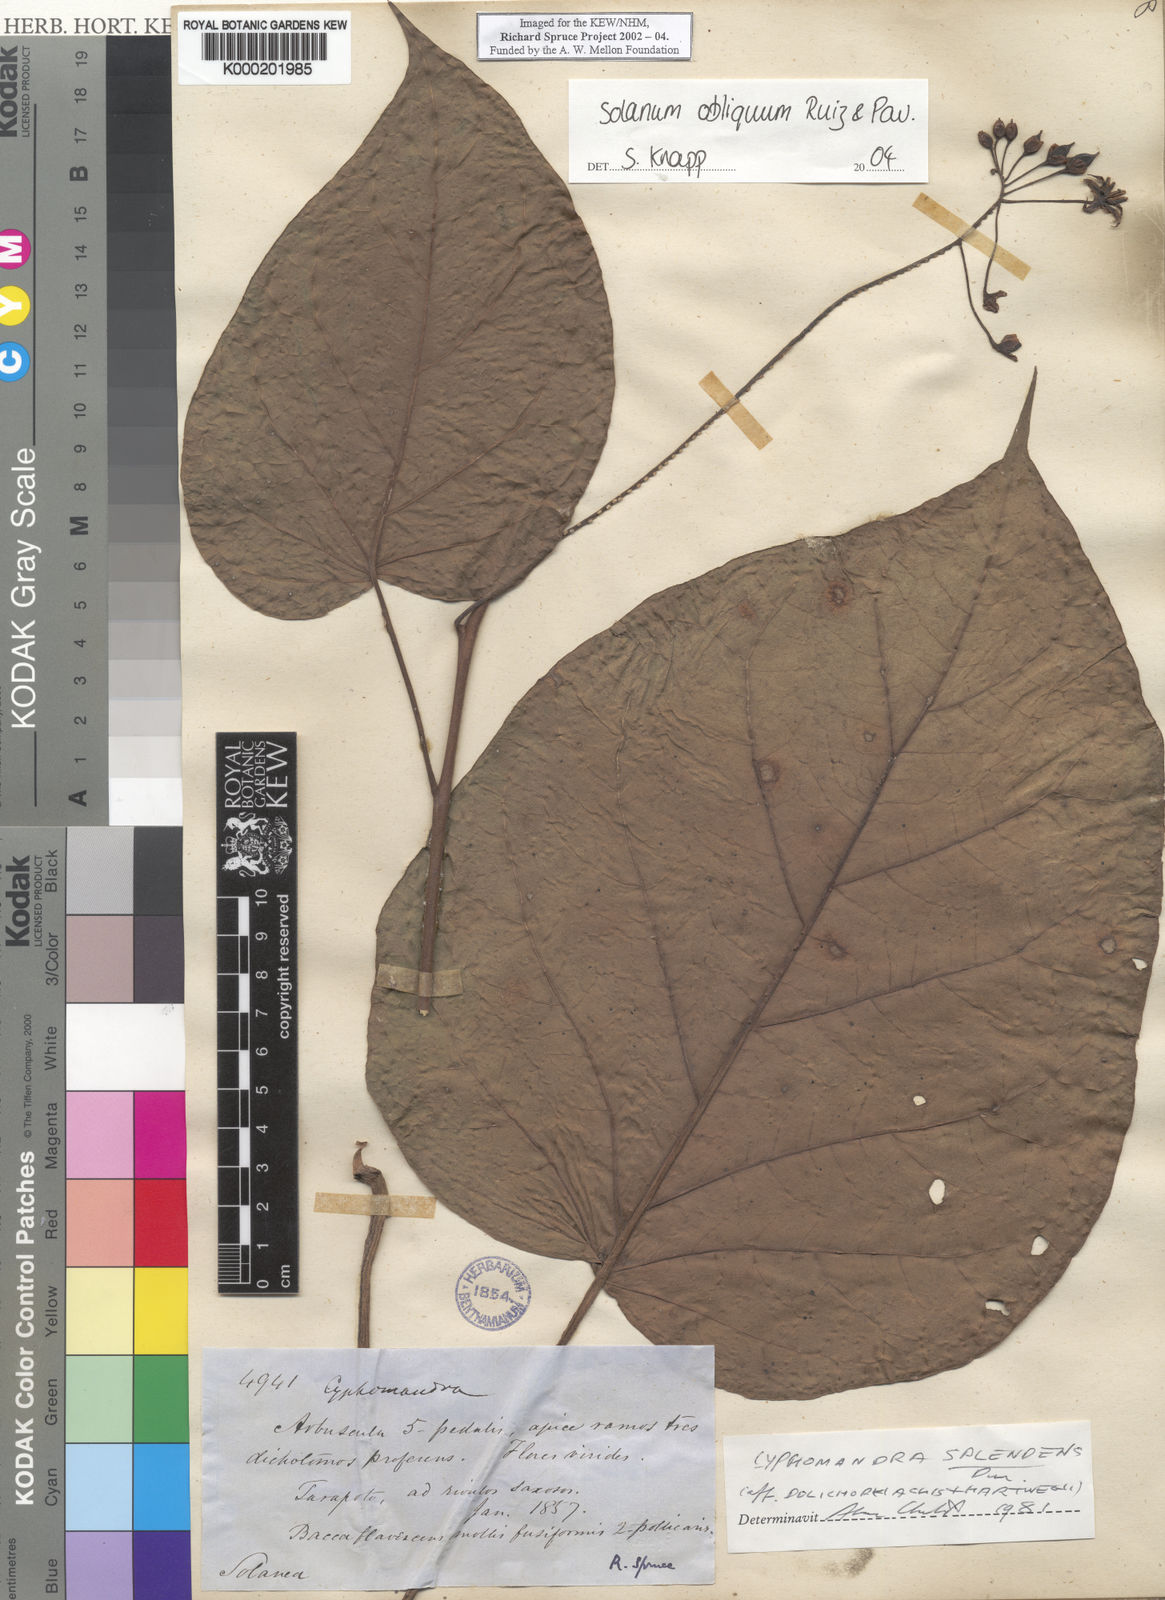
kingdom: Plantae
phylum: Tracheophyta
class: Magnoliopsida
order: Solanales
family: Solanaceae
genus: Solanum
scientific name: Solanum obliquum
